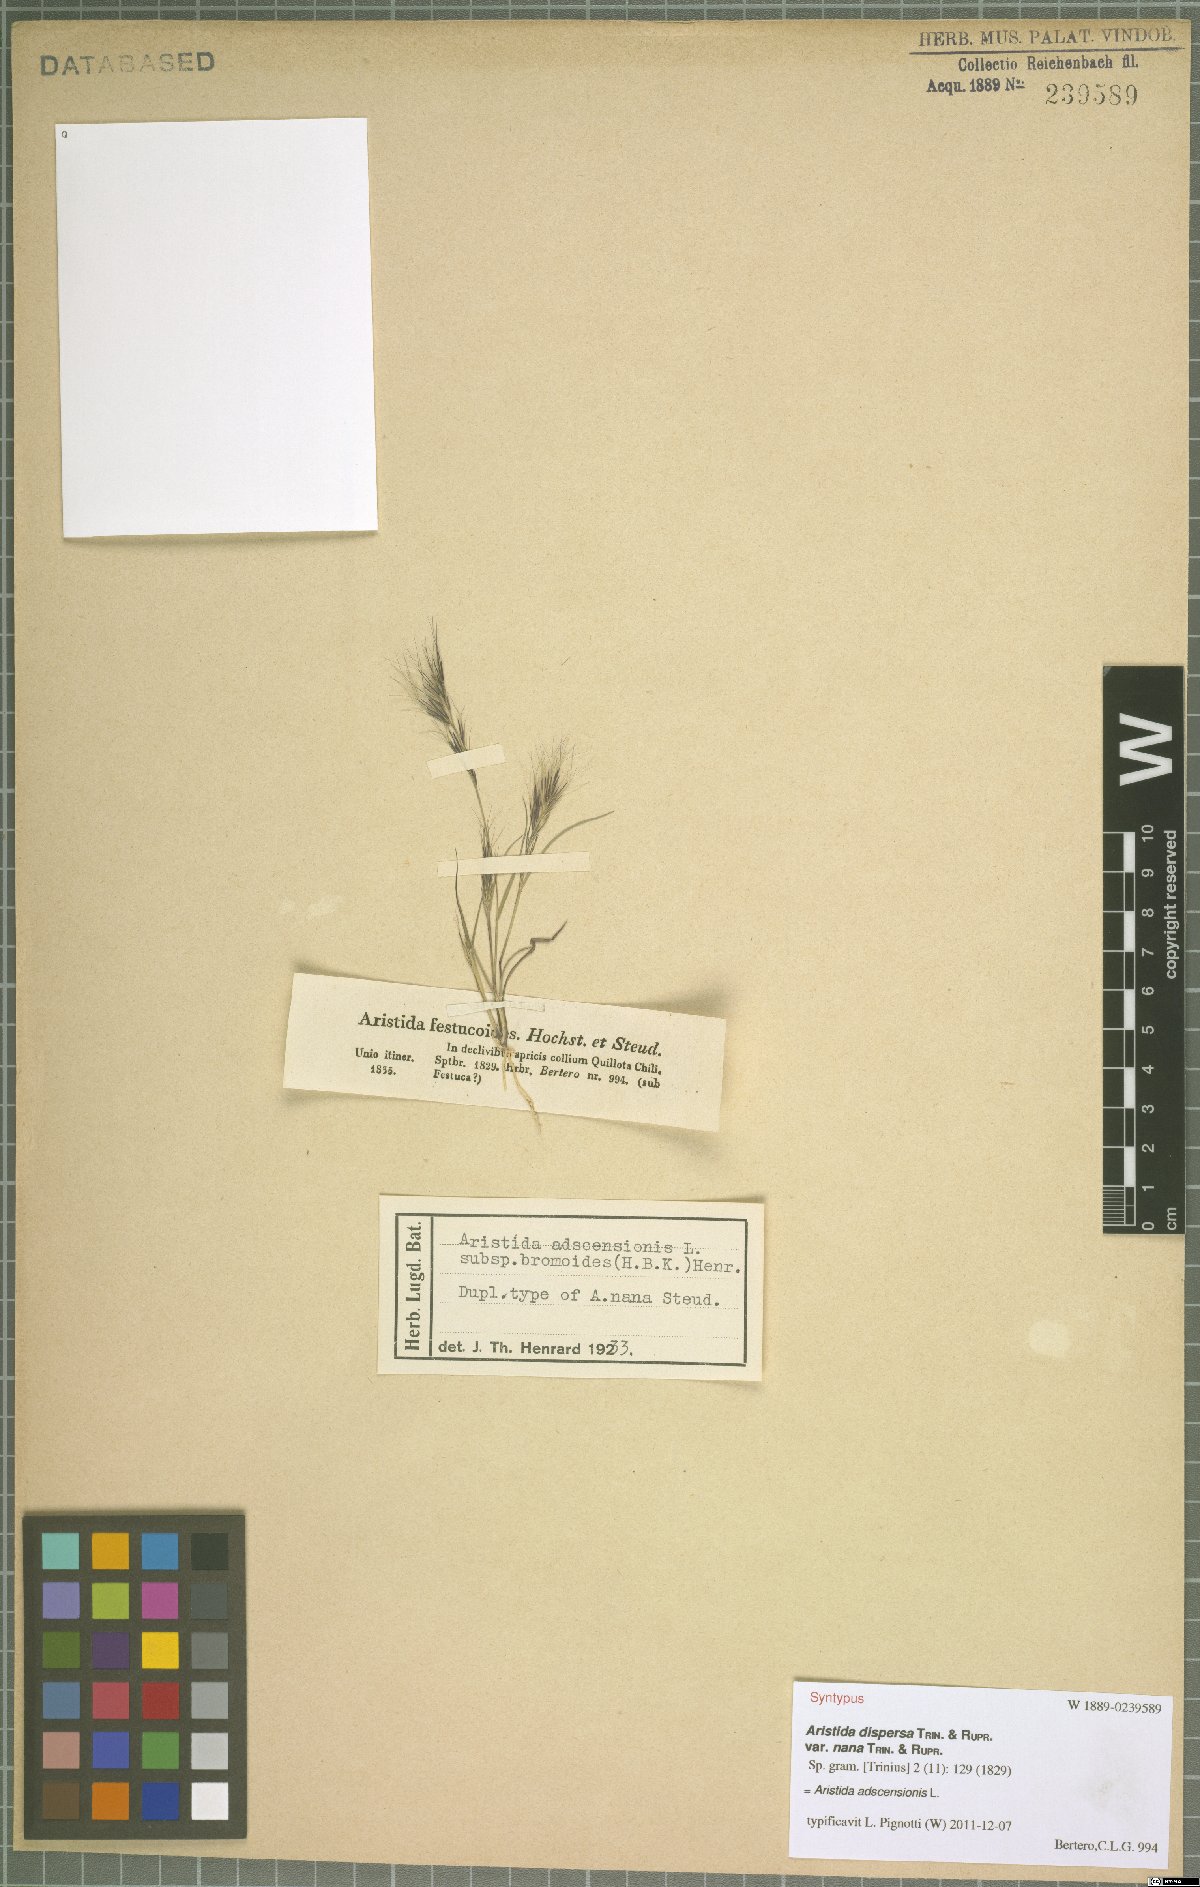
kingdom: Plantae
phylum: Tracheophyta
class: Liliopsida
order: Poales
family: Poaceae
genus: Aristida
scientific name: Aristida adscensionis
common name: Sixweeks threeawn
